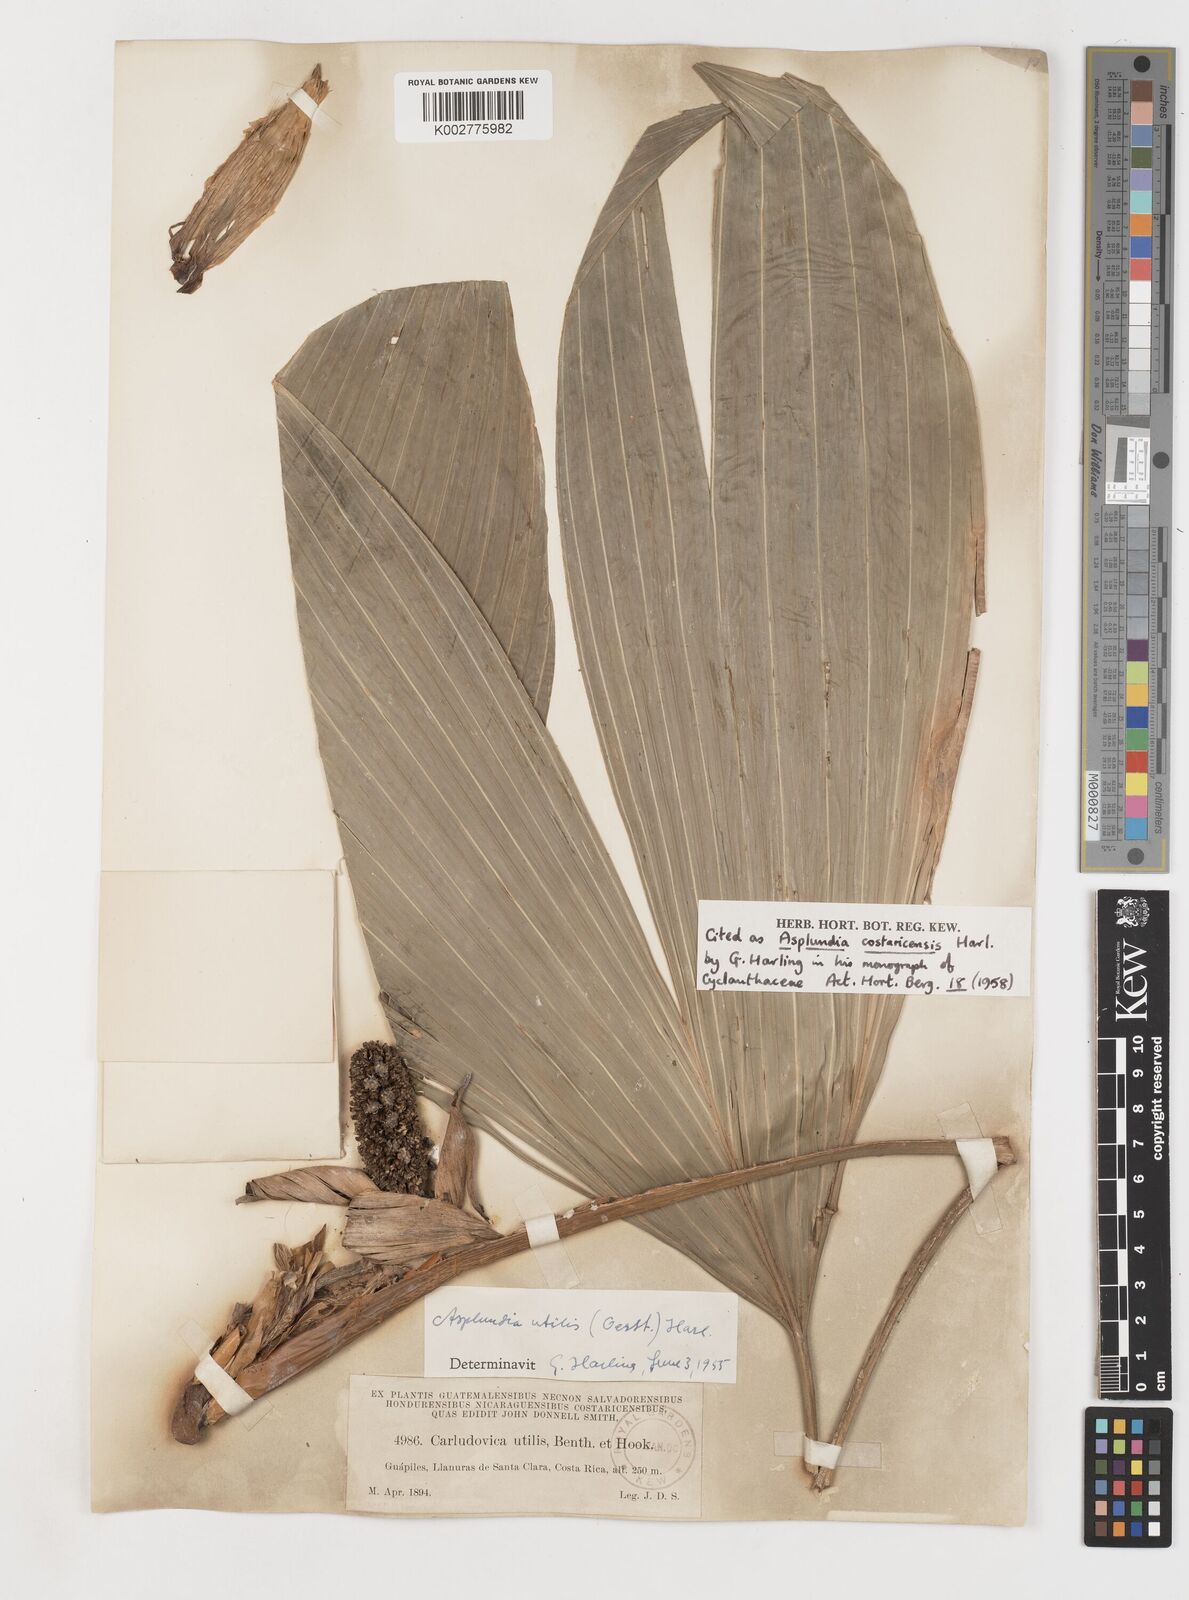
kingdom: Plantae
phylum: Tracheophyta
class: Liliopsida
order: Pandanales
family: Cyclanthaceae
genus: Asplundia
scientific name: Asplundia utilis
